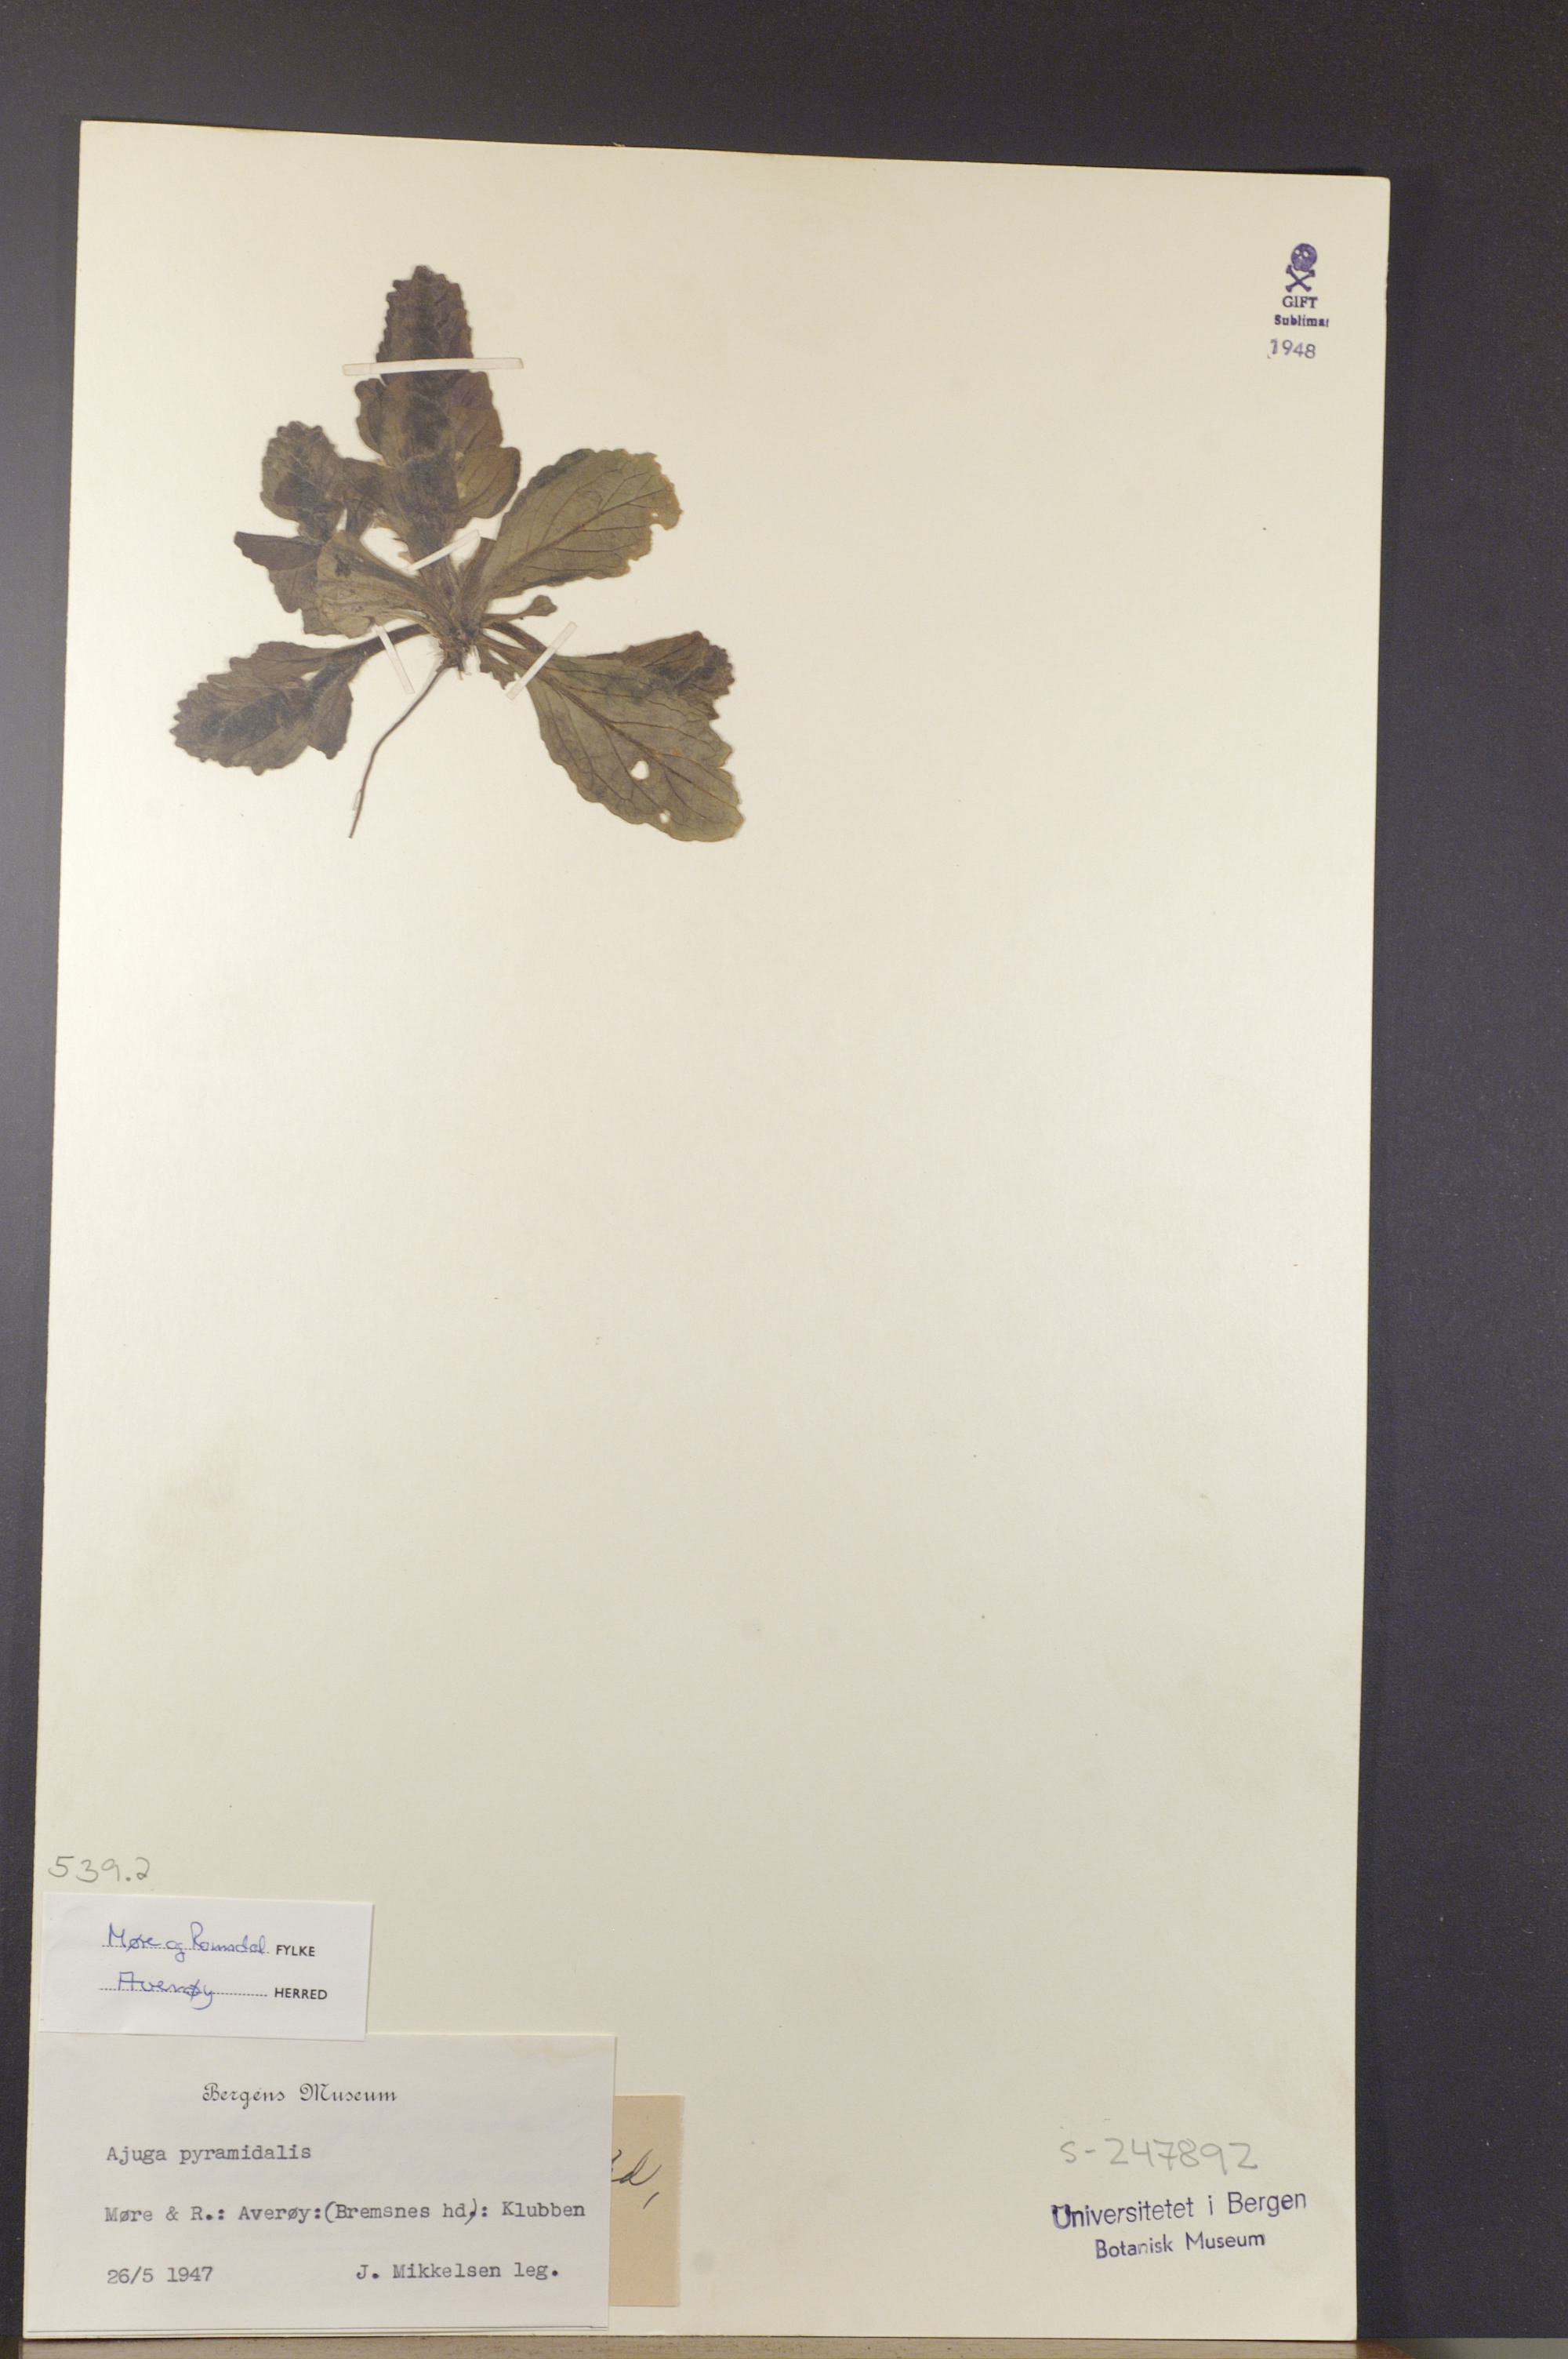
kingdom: Plantae
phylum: Tracheophyta
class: Magnoliopsida
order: Lamiales
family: Lamiaceae
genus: Ajuga
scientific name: Ajuga pyramidalis
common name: Pyramid bugle
